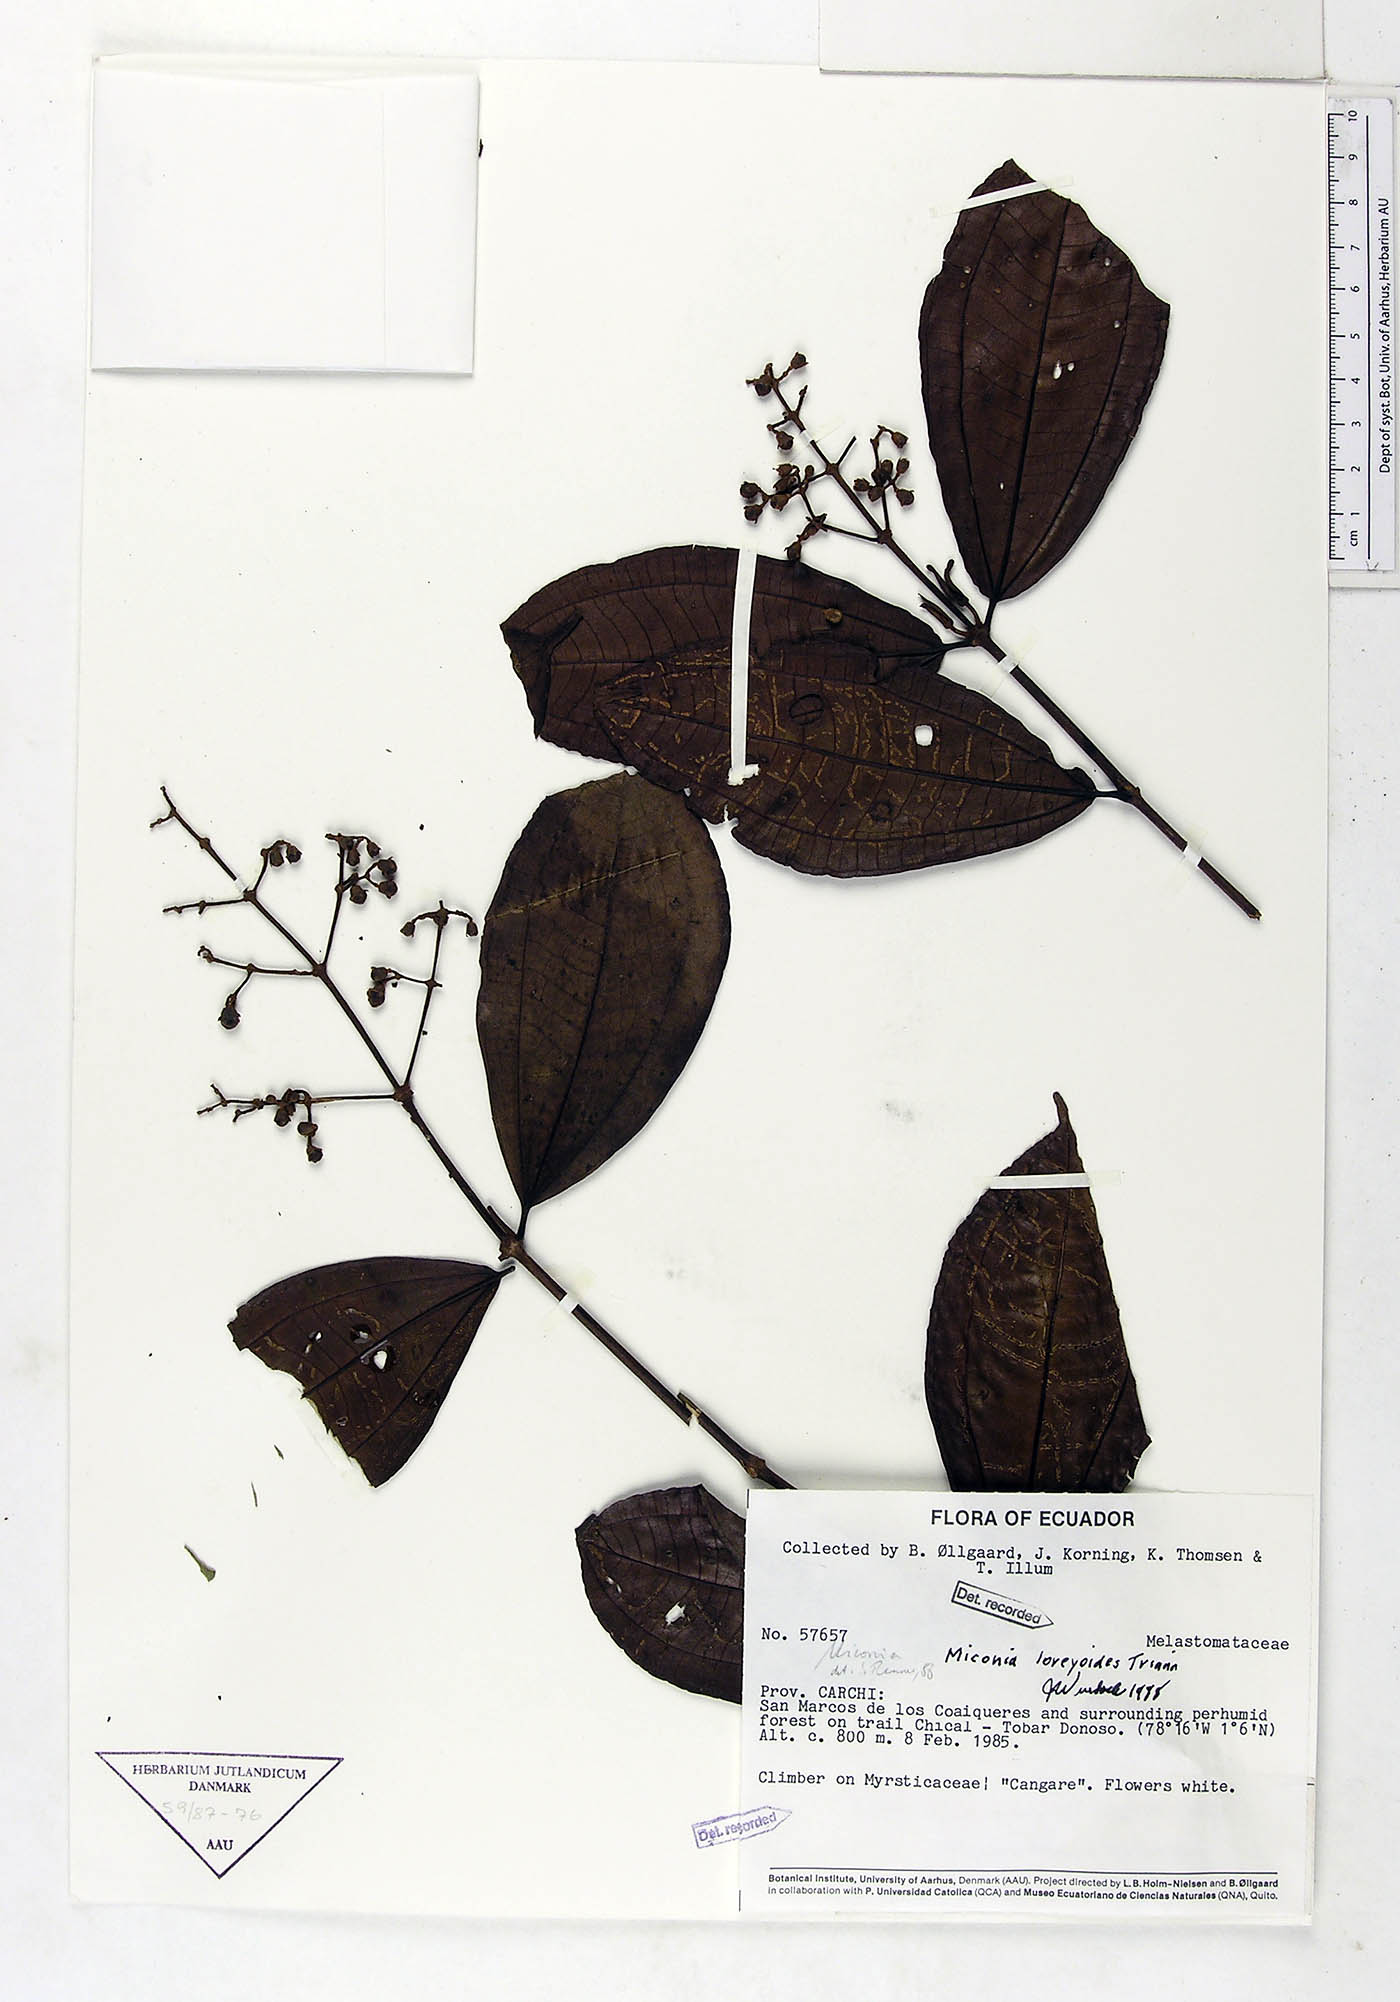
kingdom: Plantae
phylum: Tracheophyta
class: Magnoliopsida
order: Myrtales
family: Melastomataceae
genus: Miconia
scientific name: Miconia loreyoides
